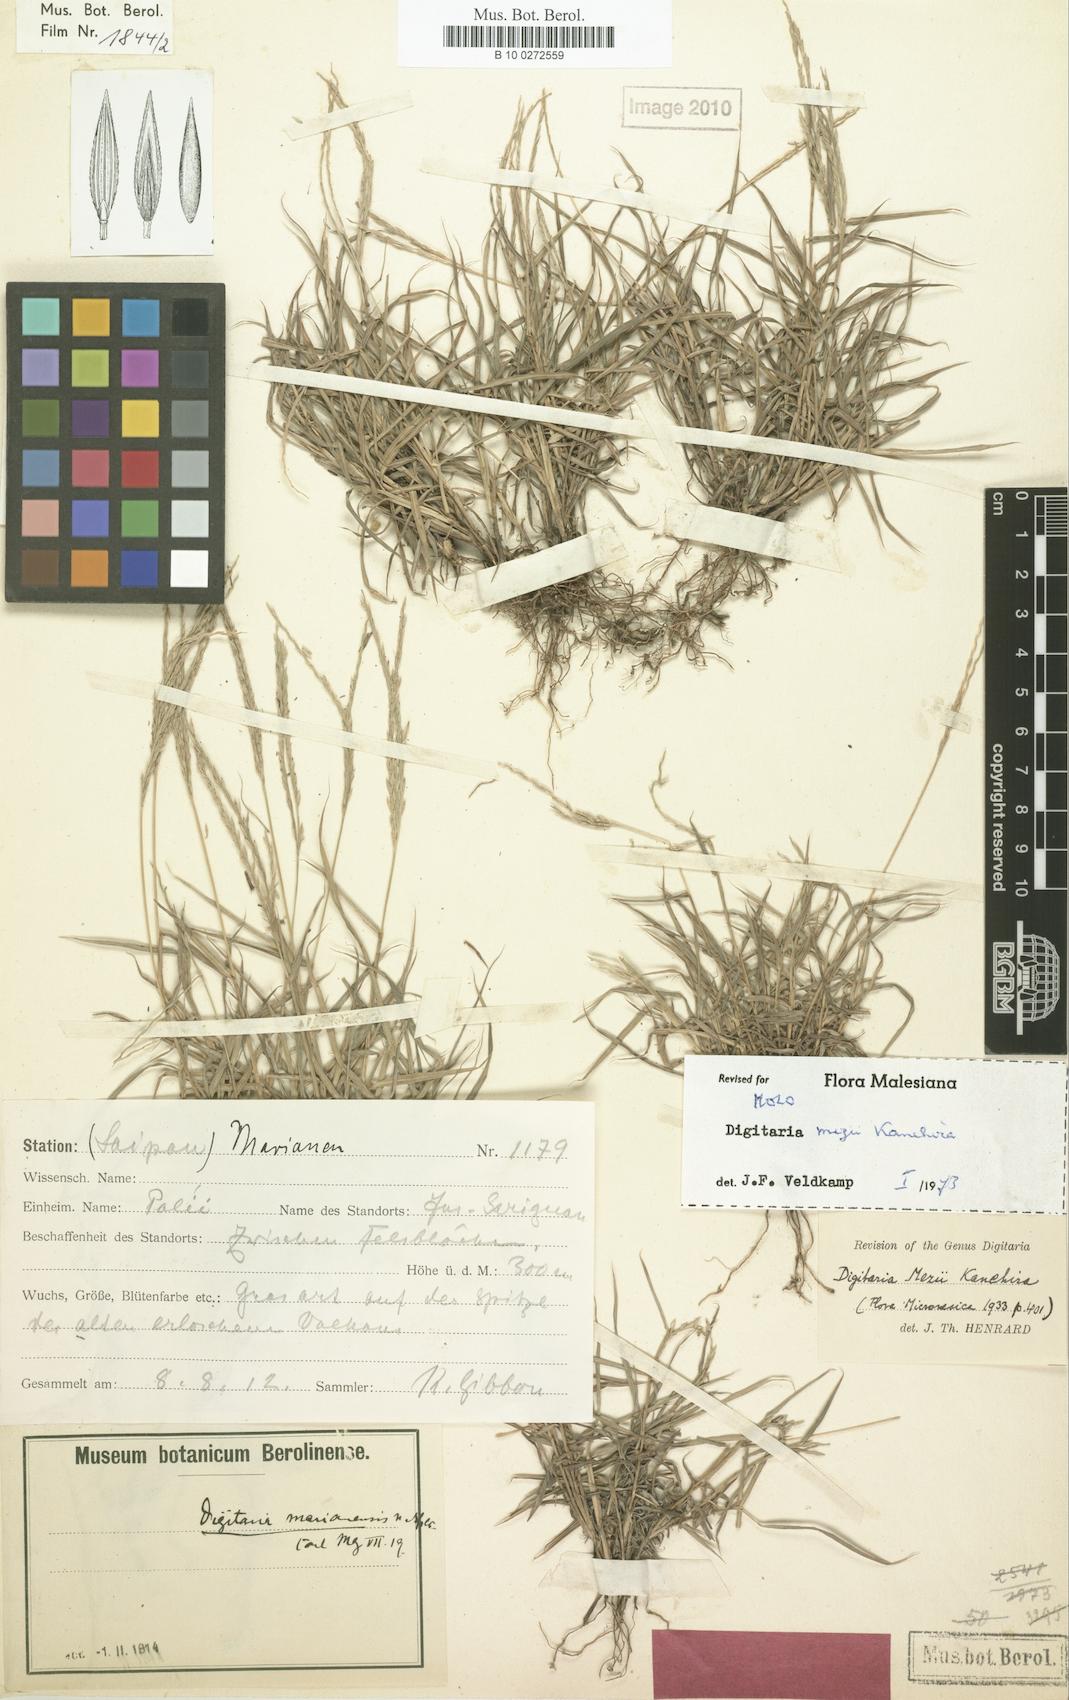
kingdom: Plantae
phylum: Tracheophyta
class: Liliopsida
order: Poales
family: Poaceae
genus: Digitaria
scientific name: Digitaria mezii
